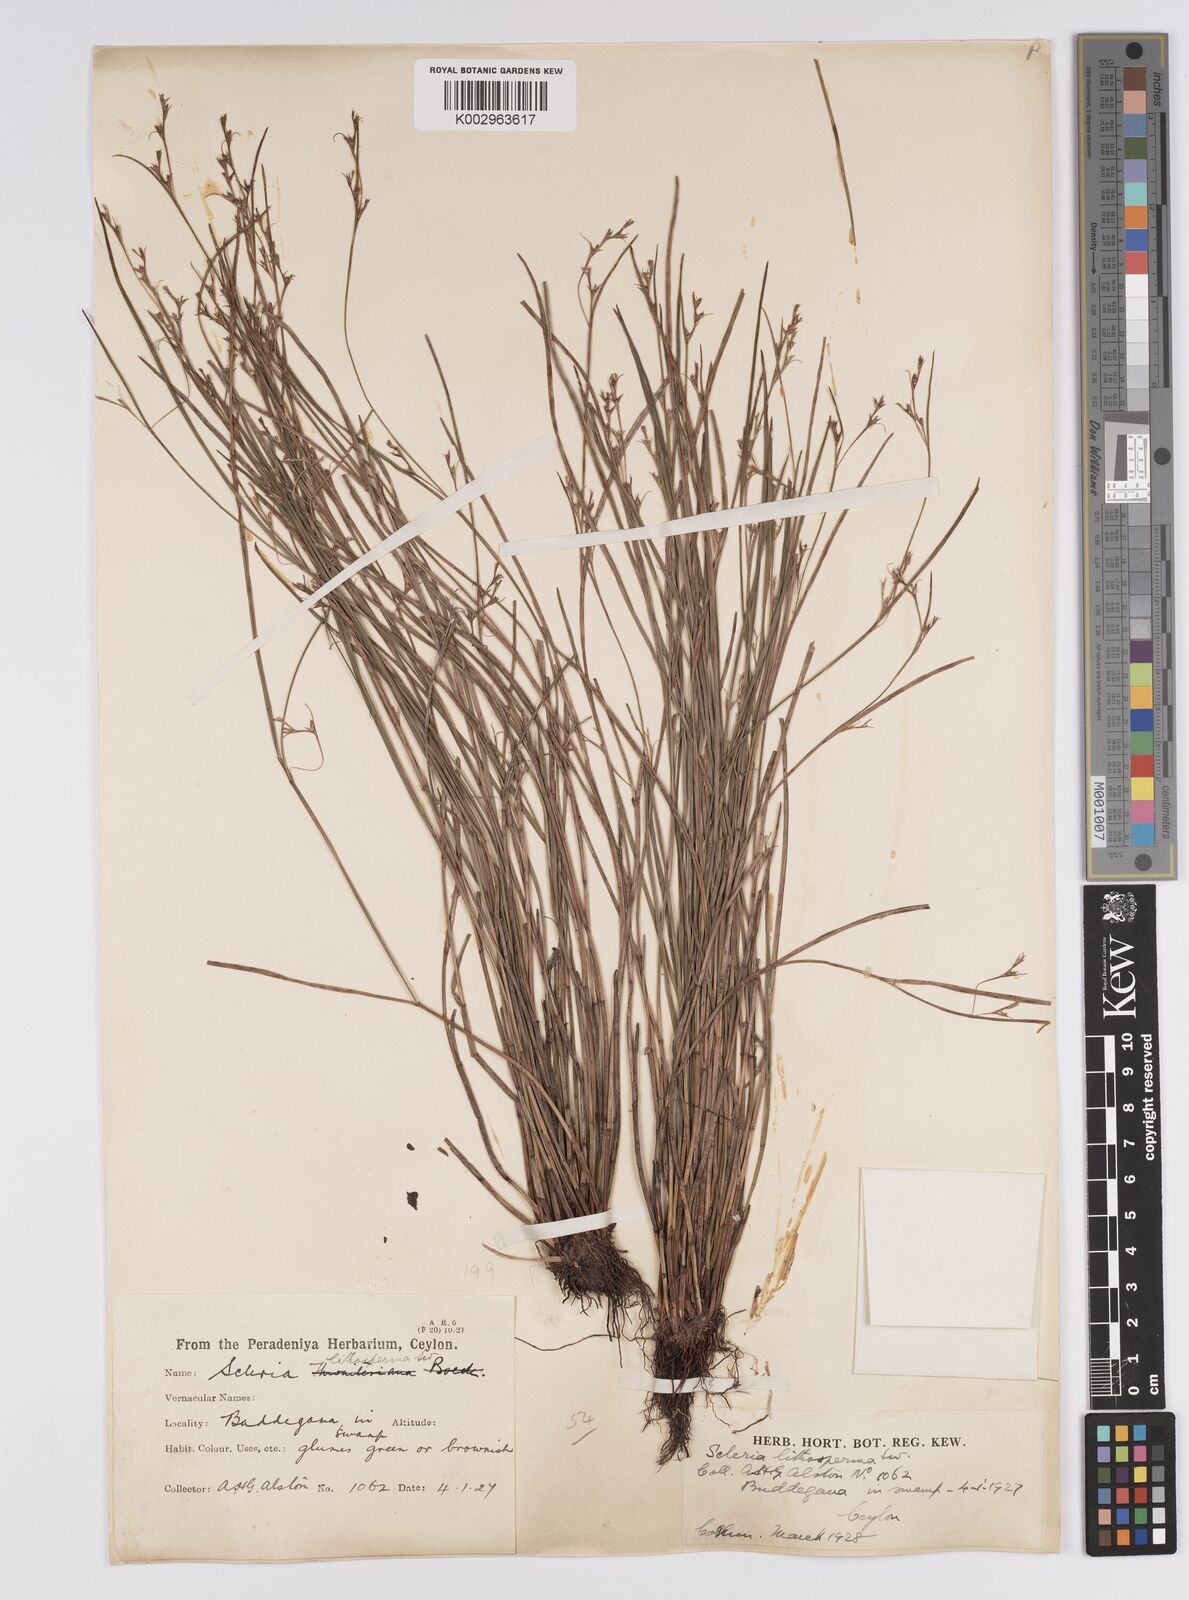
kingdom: Plantae
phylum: Tracheophyta
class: Liliopsida
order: Poales
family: Cyperaceae
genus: Scleria
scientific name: Scleria lithosperma
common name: Florida keys nut-rush
